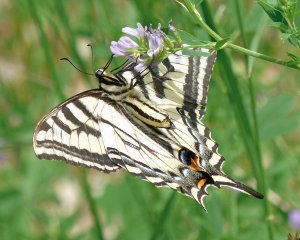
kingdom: Animalia
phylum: Arthropoda
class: Insecta
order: Lepidoptera
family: Papilionidae
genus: Pterourus
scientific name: Pterourus rutulus
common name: Western Tiger Swallowtail
